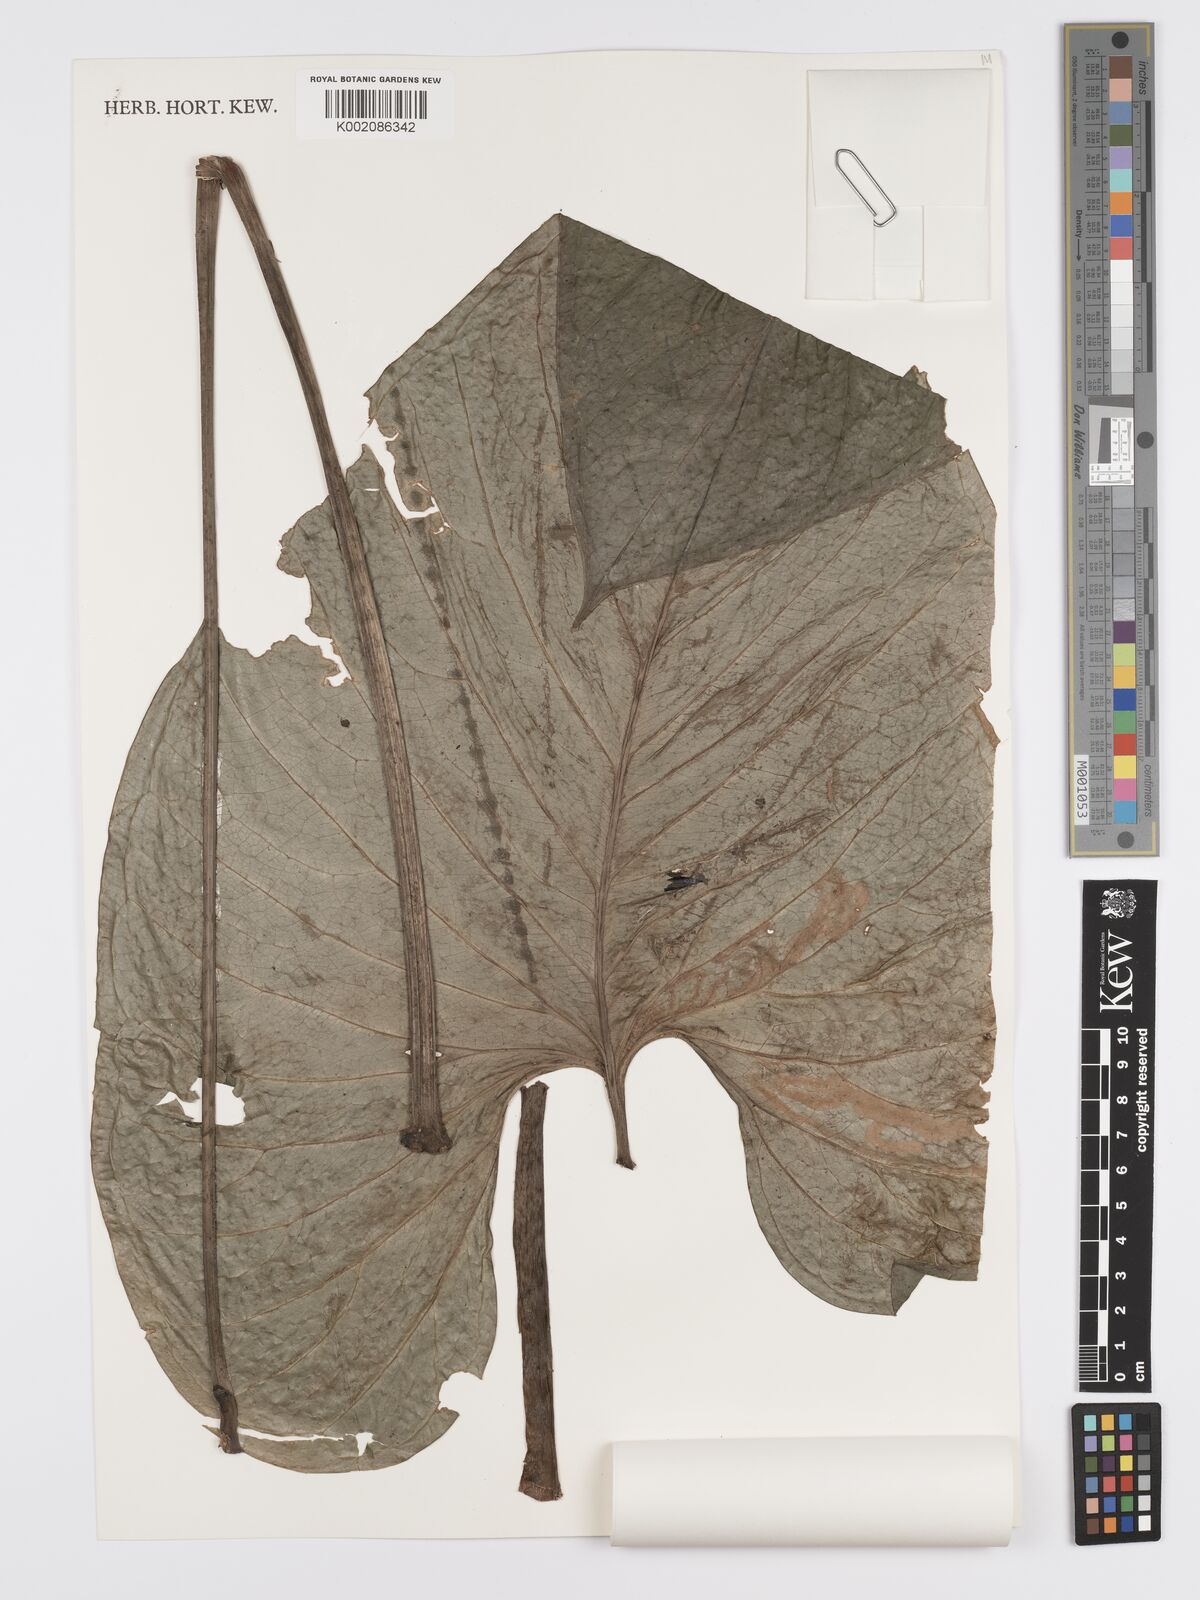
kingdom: Plantae
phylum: Tracheophyta
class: Liliopsida
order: Alismatales
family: Araceae
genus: Anthurium
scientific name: Anthurium lancea
